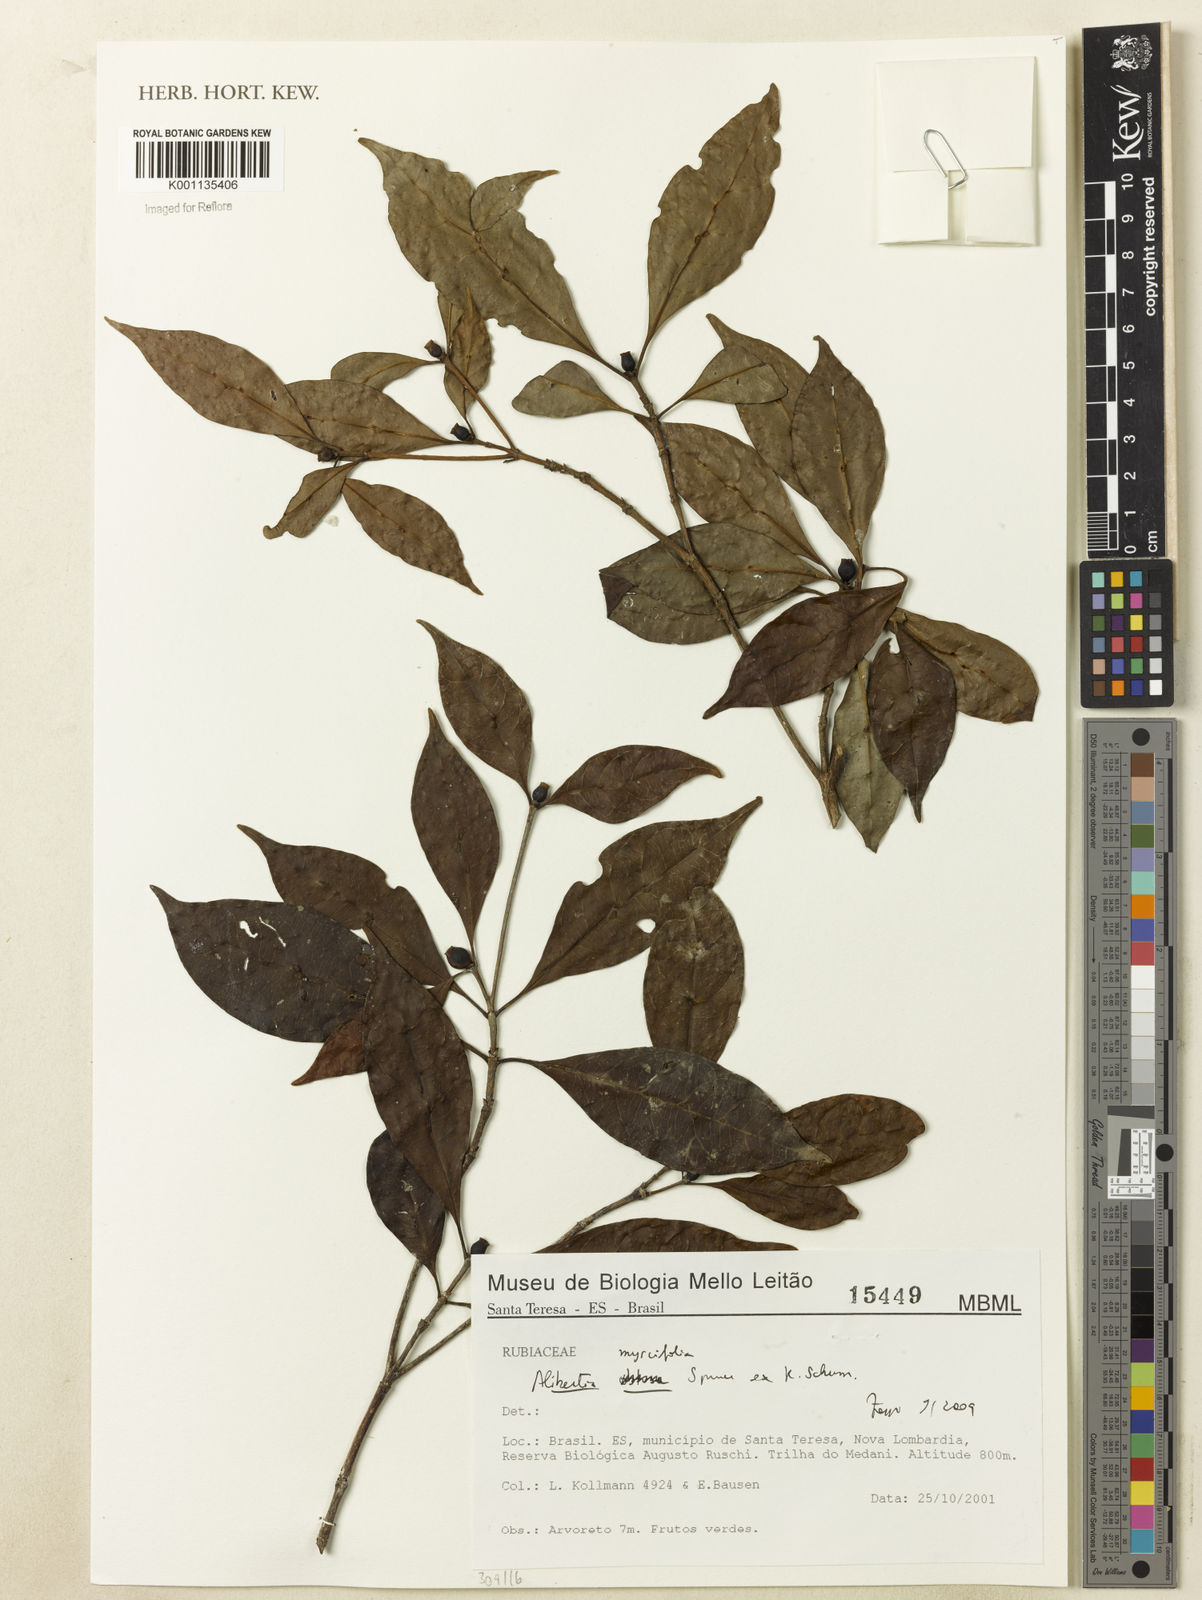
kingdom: Plantae
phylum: Tracheophyta
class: Magnoliopsida
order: Gentianales
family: Rubiaceae
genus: Cordiera
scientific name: Cordiera myrciifolia
